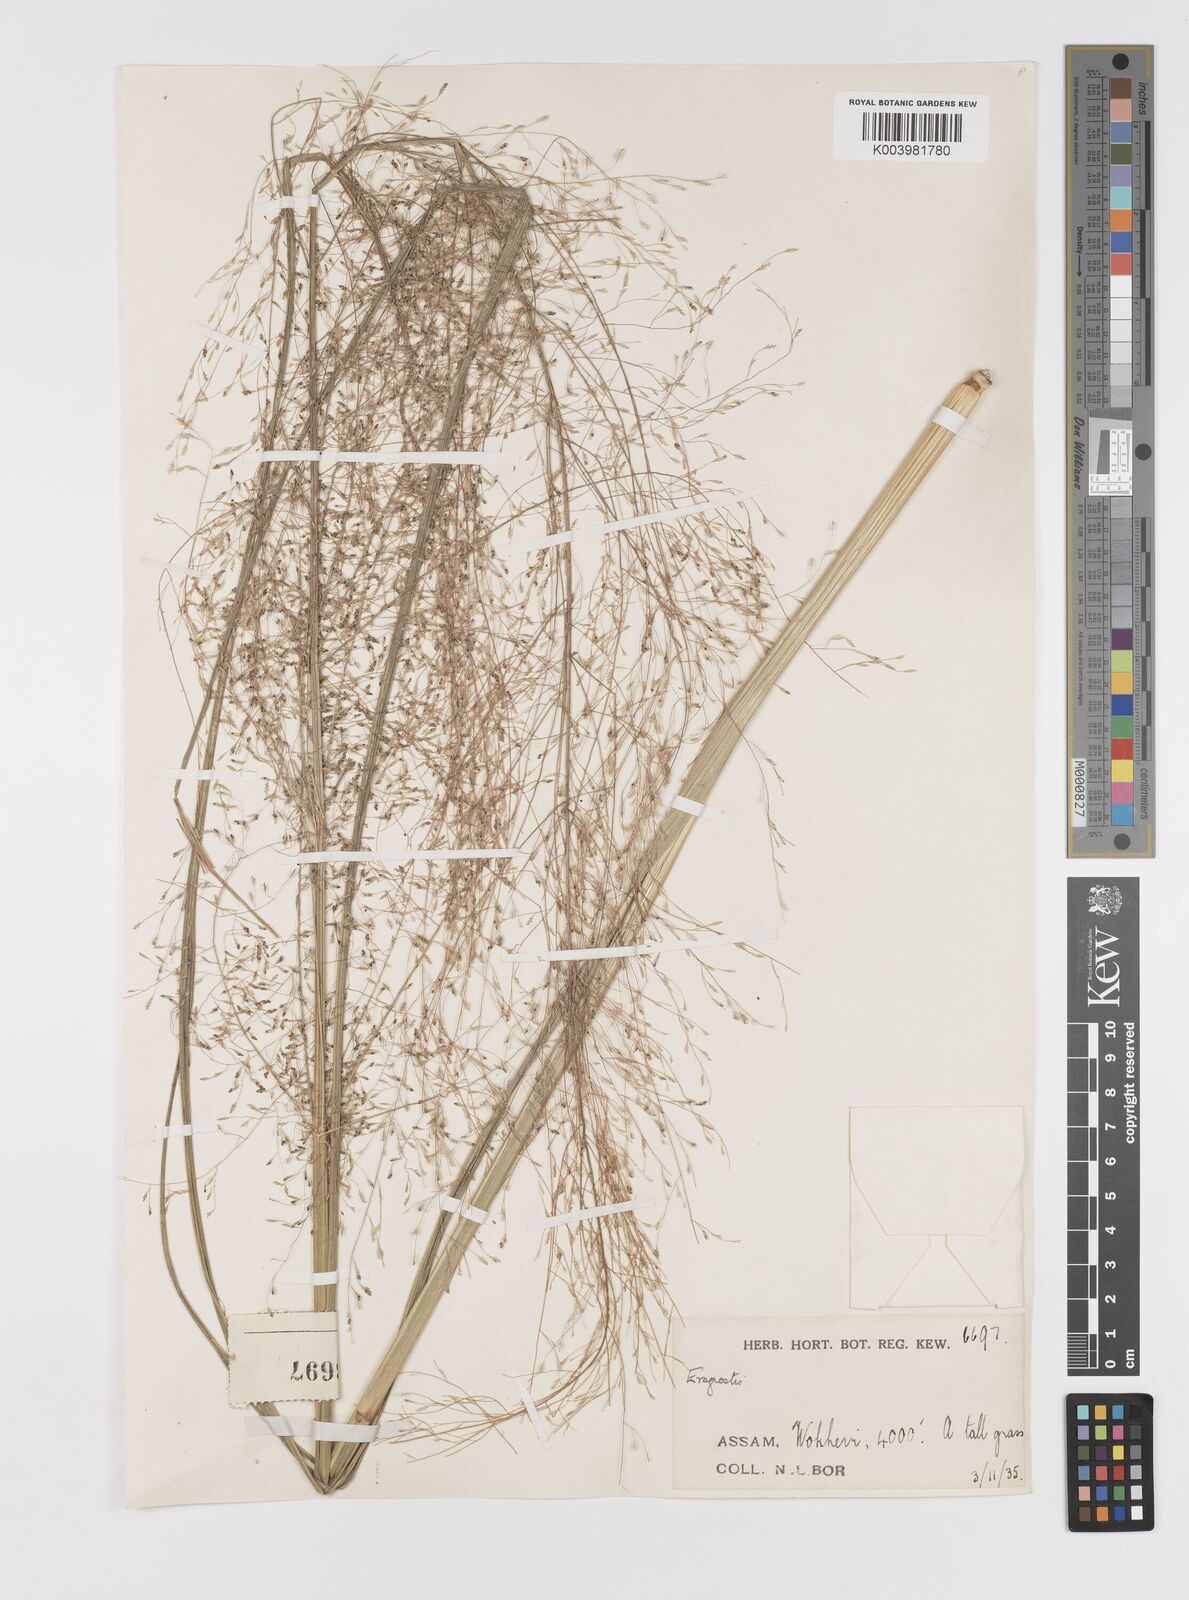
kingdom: Plantae
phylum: Tracheophyta
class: Liliopsida
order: Poales
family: Poaceae
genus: Eragrostis
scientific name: Eragrostis nigra
